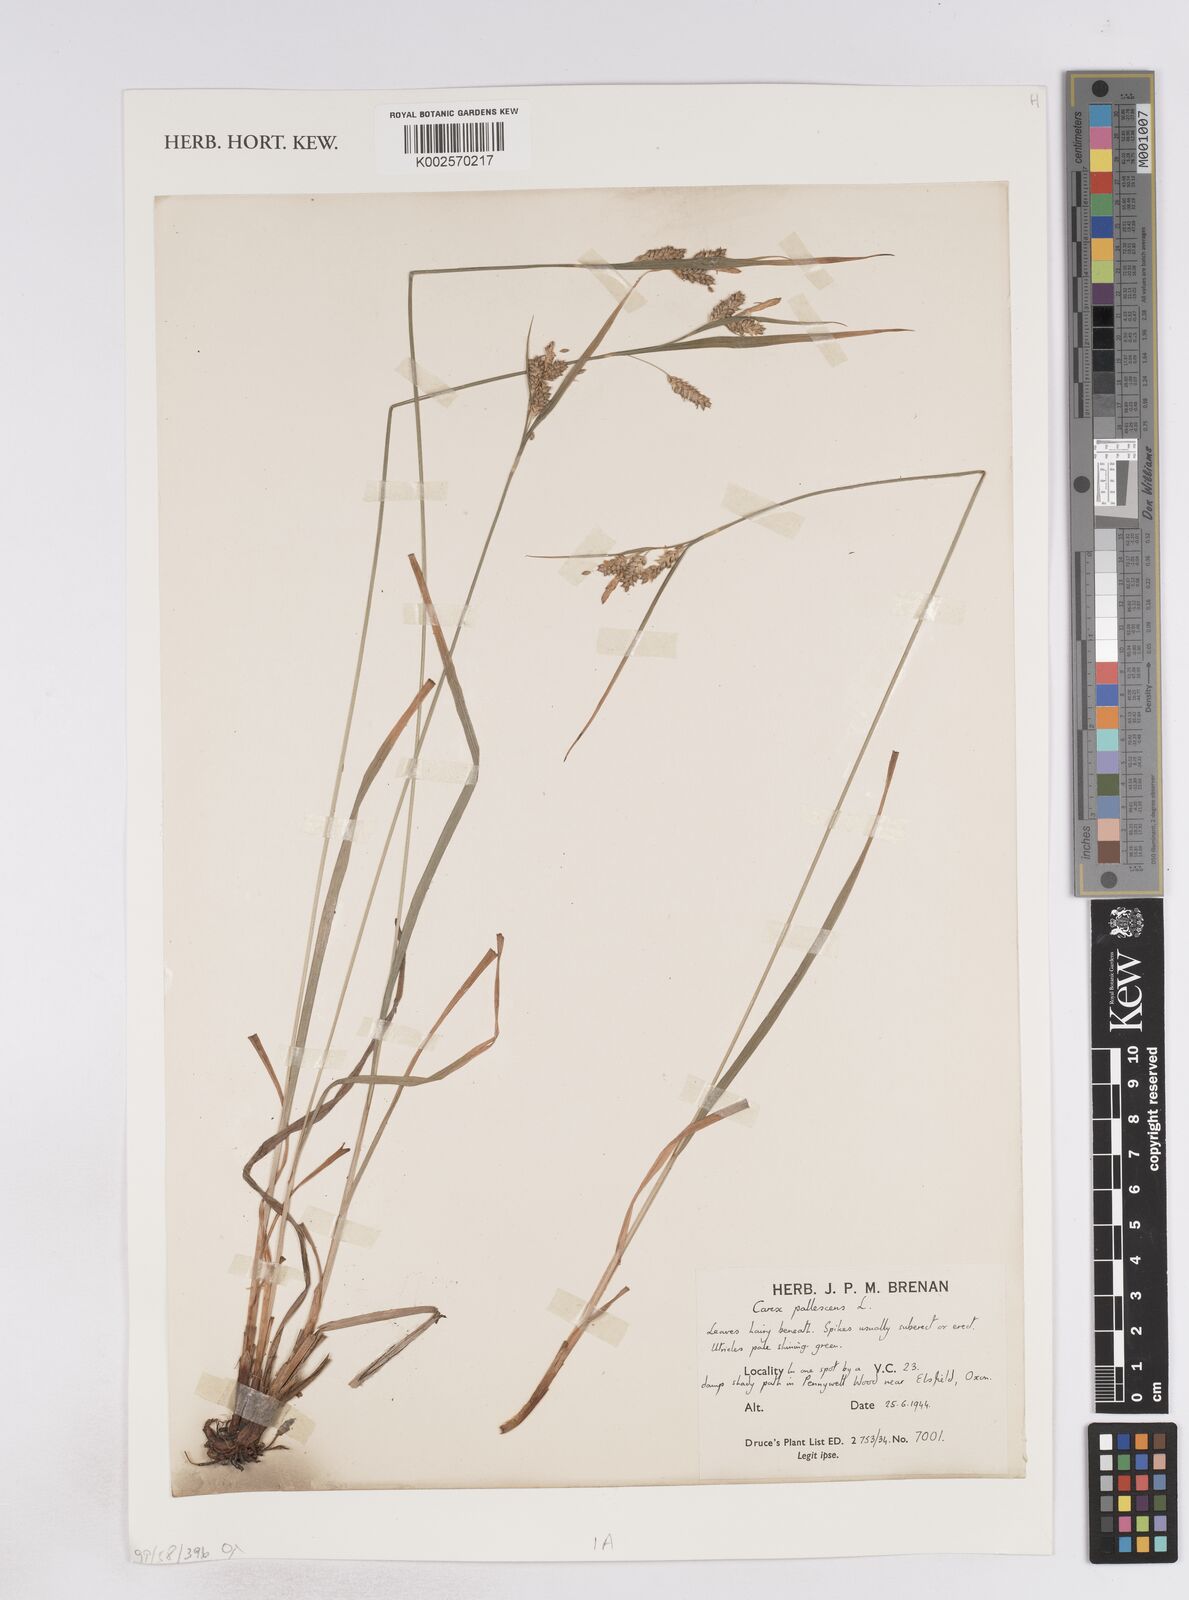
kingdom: Plantae
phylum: Tracheophyta
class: Liliopsida
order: Poales
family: Cyperaceae
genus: Carex
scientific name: Carex pallescens
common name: Pale sedge
